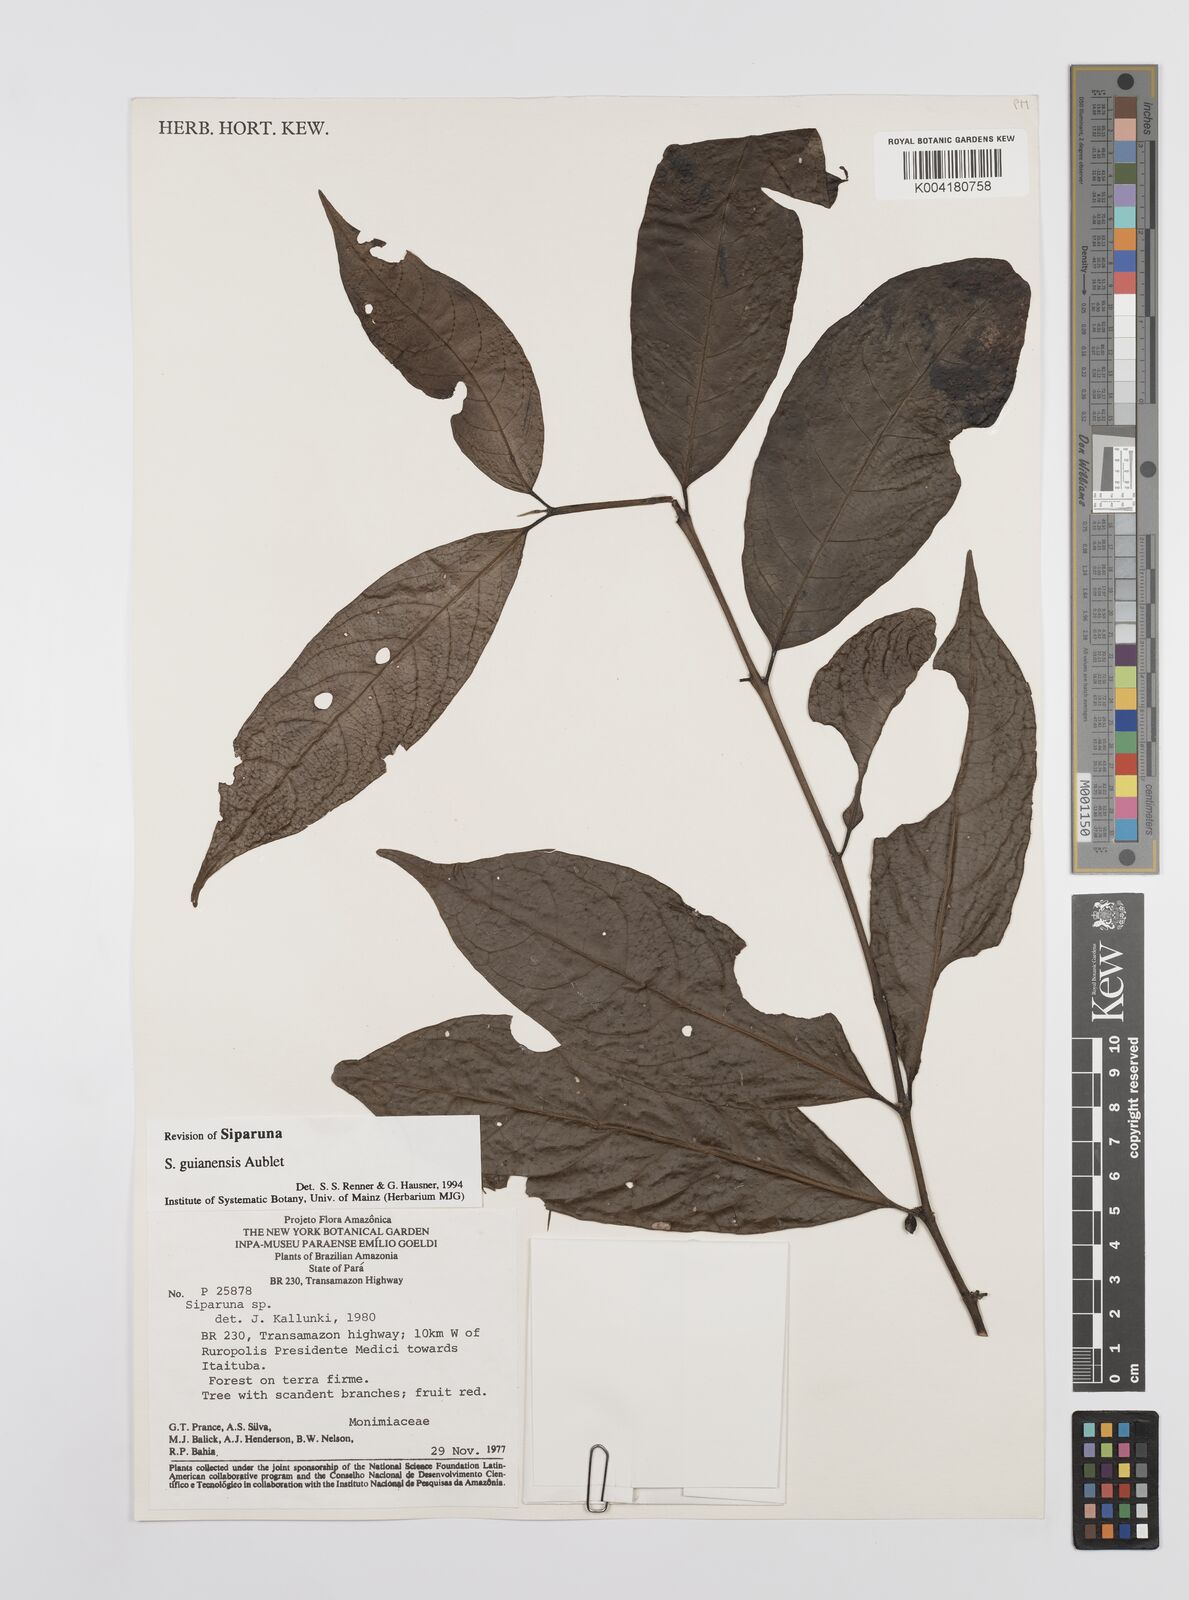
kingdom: Plantae
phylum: Tracheophyta
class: Magnoliopsida
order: Laurales
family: Siparunaceae
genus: Siparuna
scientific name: Siparuna guianensis
